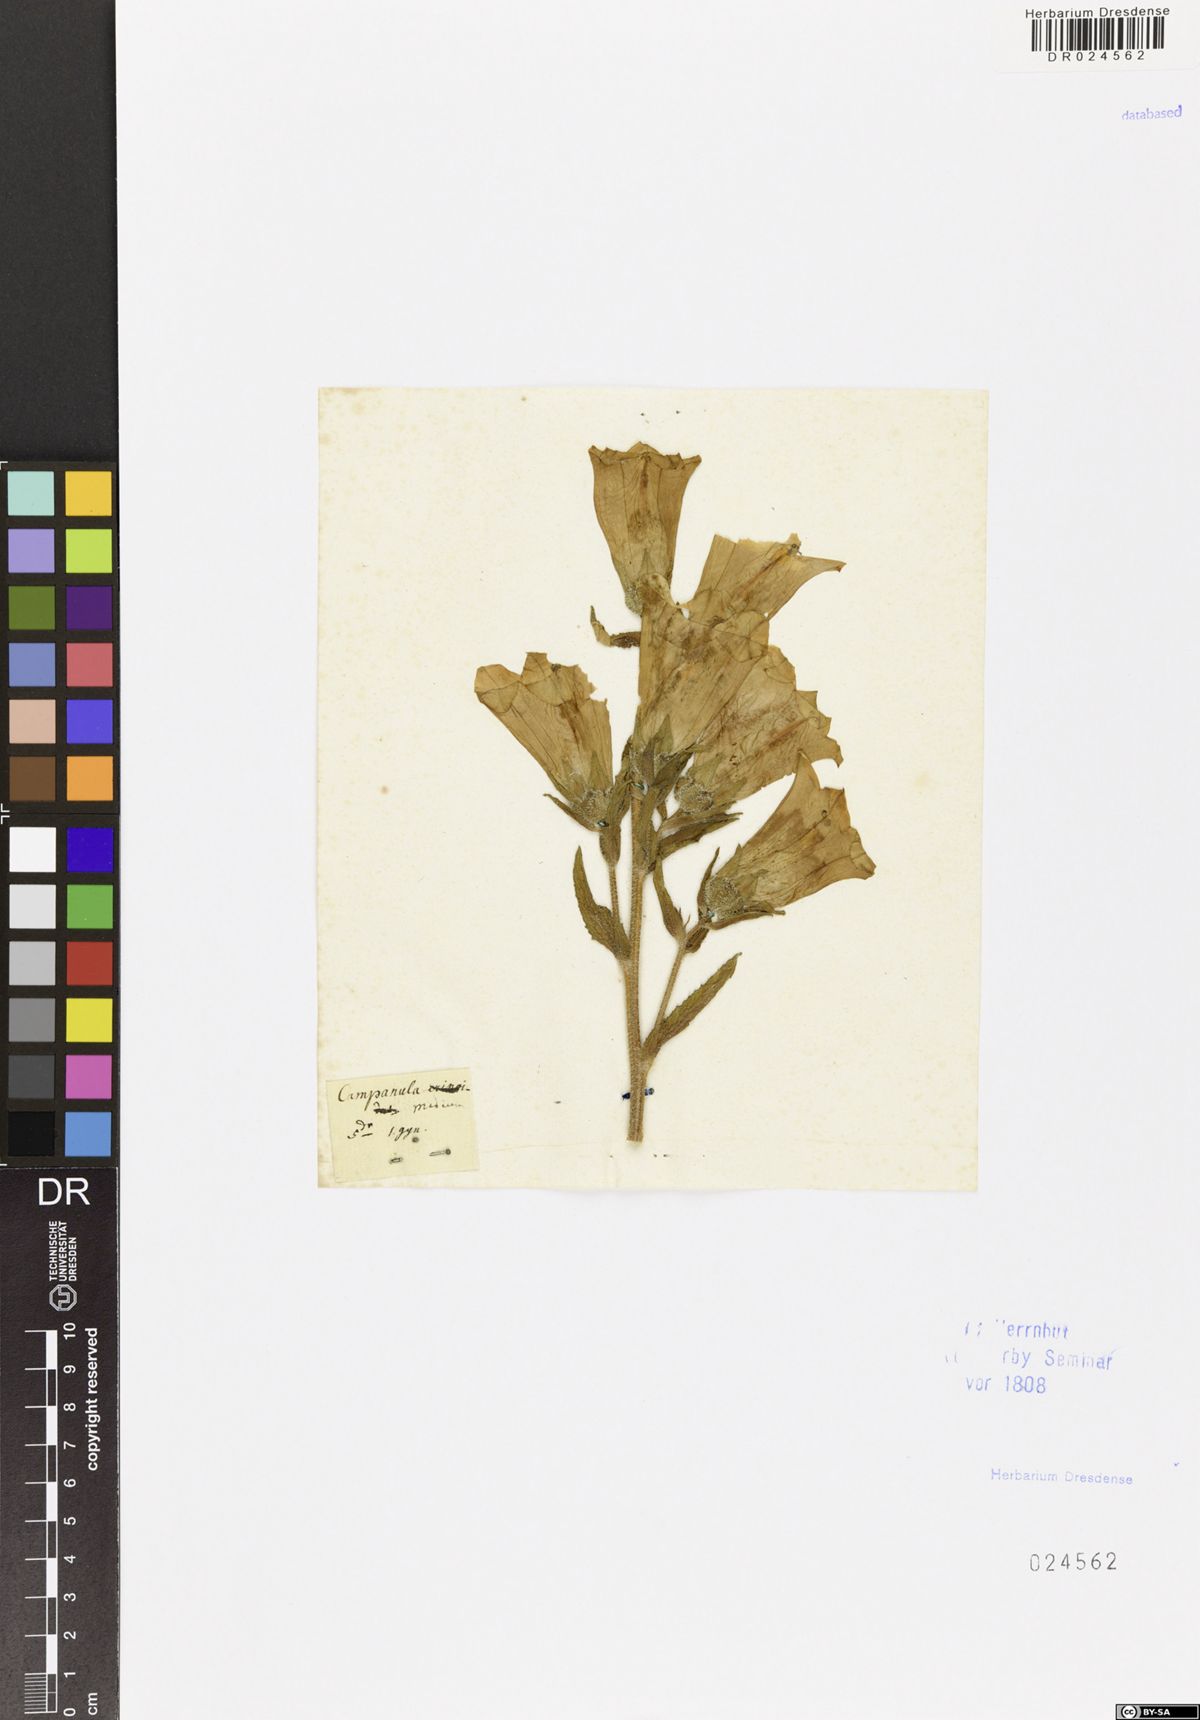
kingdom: Plantae
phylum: Tracheophyta
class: Magnoliopsida
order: Asterales
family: Campanulaceae
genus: Campanula
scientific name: Campanula medium
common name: Canterbury bells
